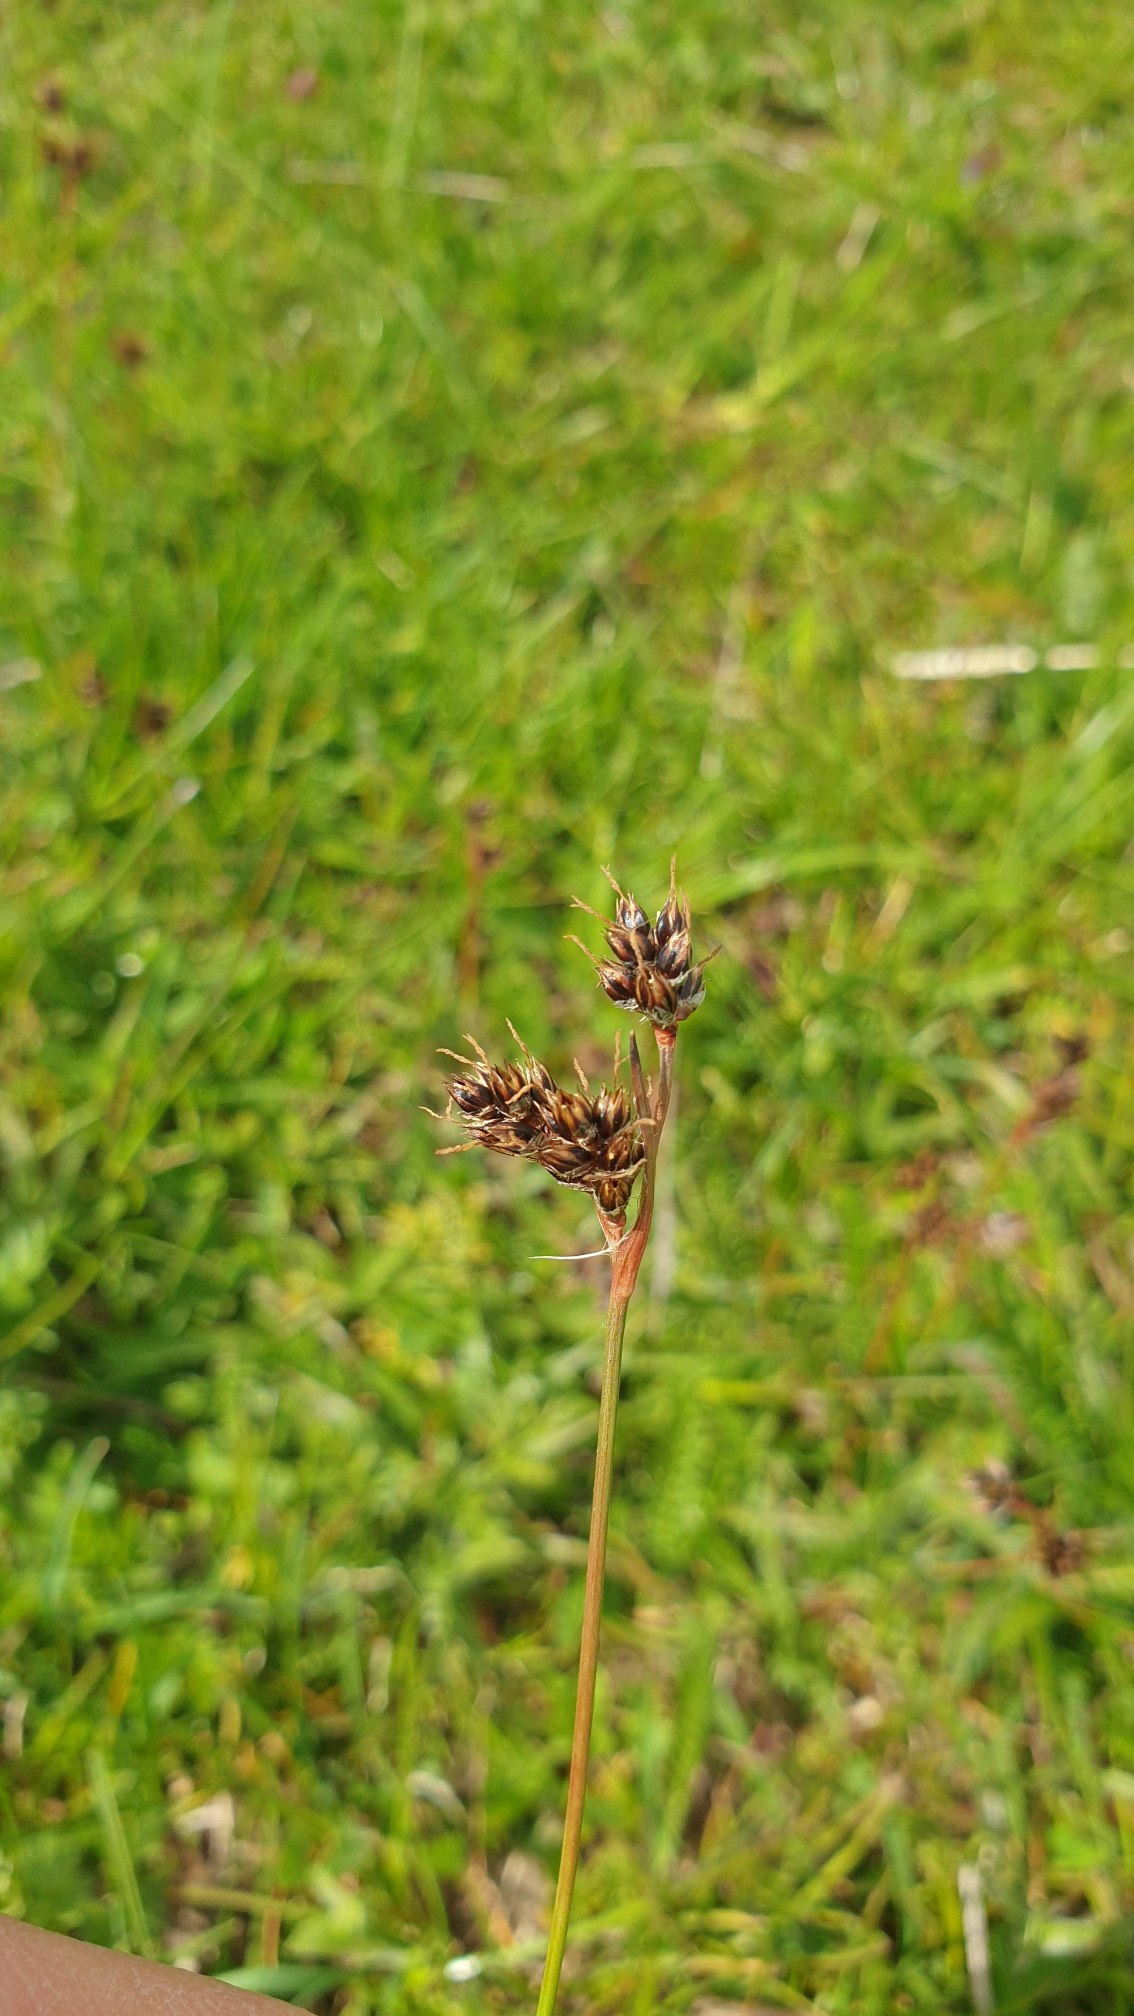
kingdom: Plantae
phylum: Tracheophyta
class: Liliopsida
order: Poales
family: Juncaceae
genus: Luzula
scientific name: Luzula campestris
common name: Mark-frytle
